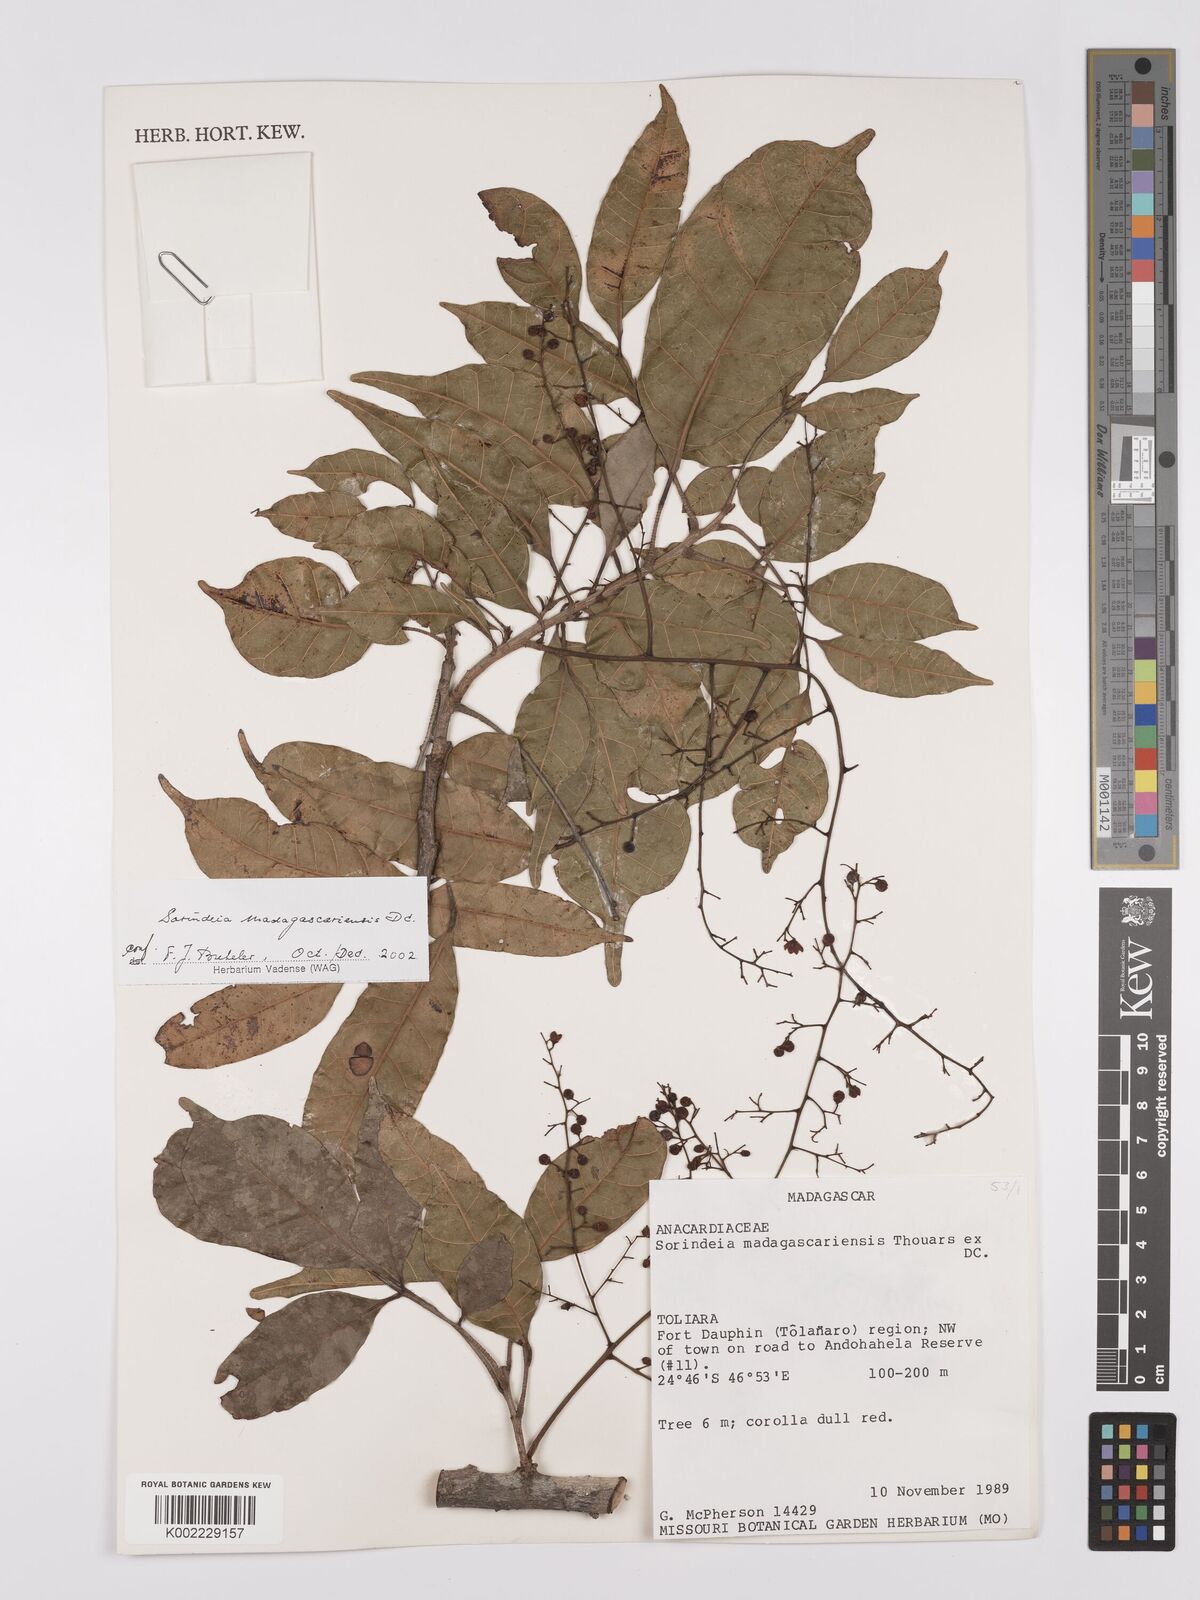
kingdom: Plantae
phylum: Tracheophyta
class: Magnoliopsida
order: Sapindales
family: Anacardiaceae
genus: Sorindeia
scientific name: Sorindeia madagascariensis
